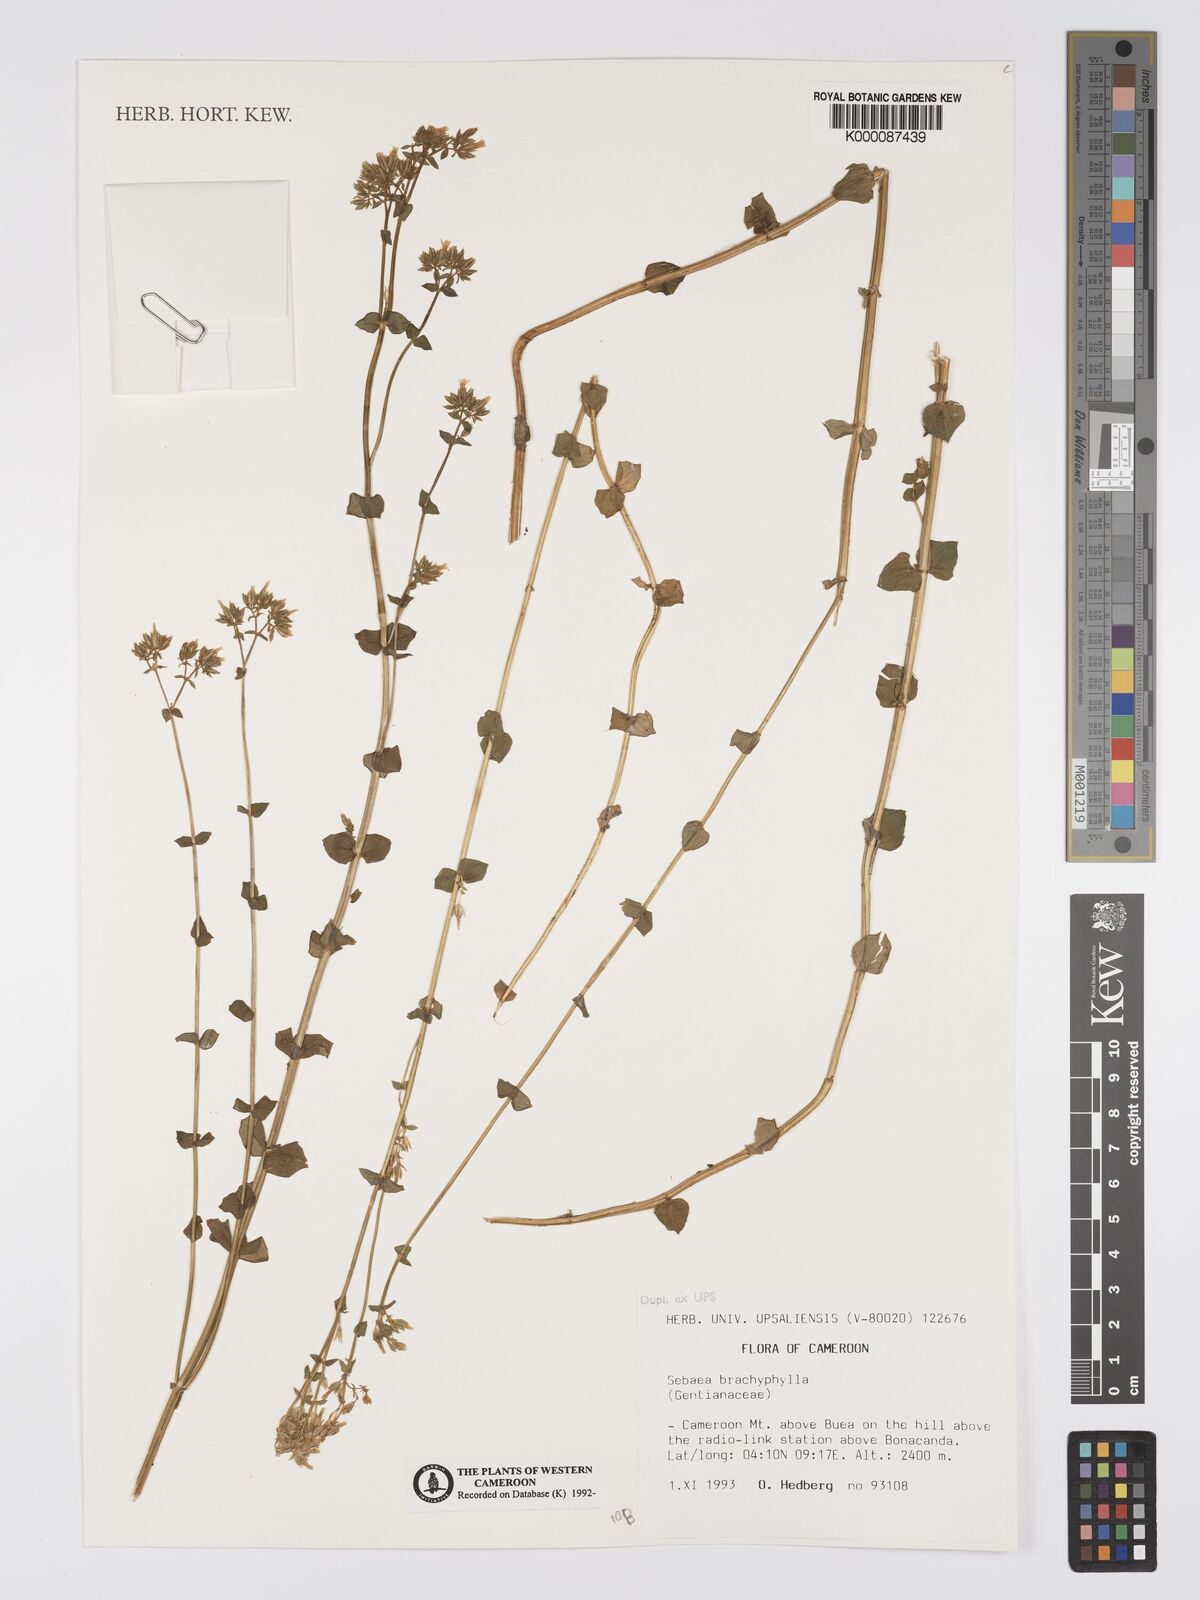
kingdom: Plantae
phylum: Tracheophyta
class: Magnoliopsida
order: Gentianales
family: Gentianaceae
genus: Sebaea
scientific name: Sebaea brachyphylla
